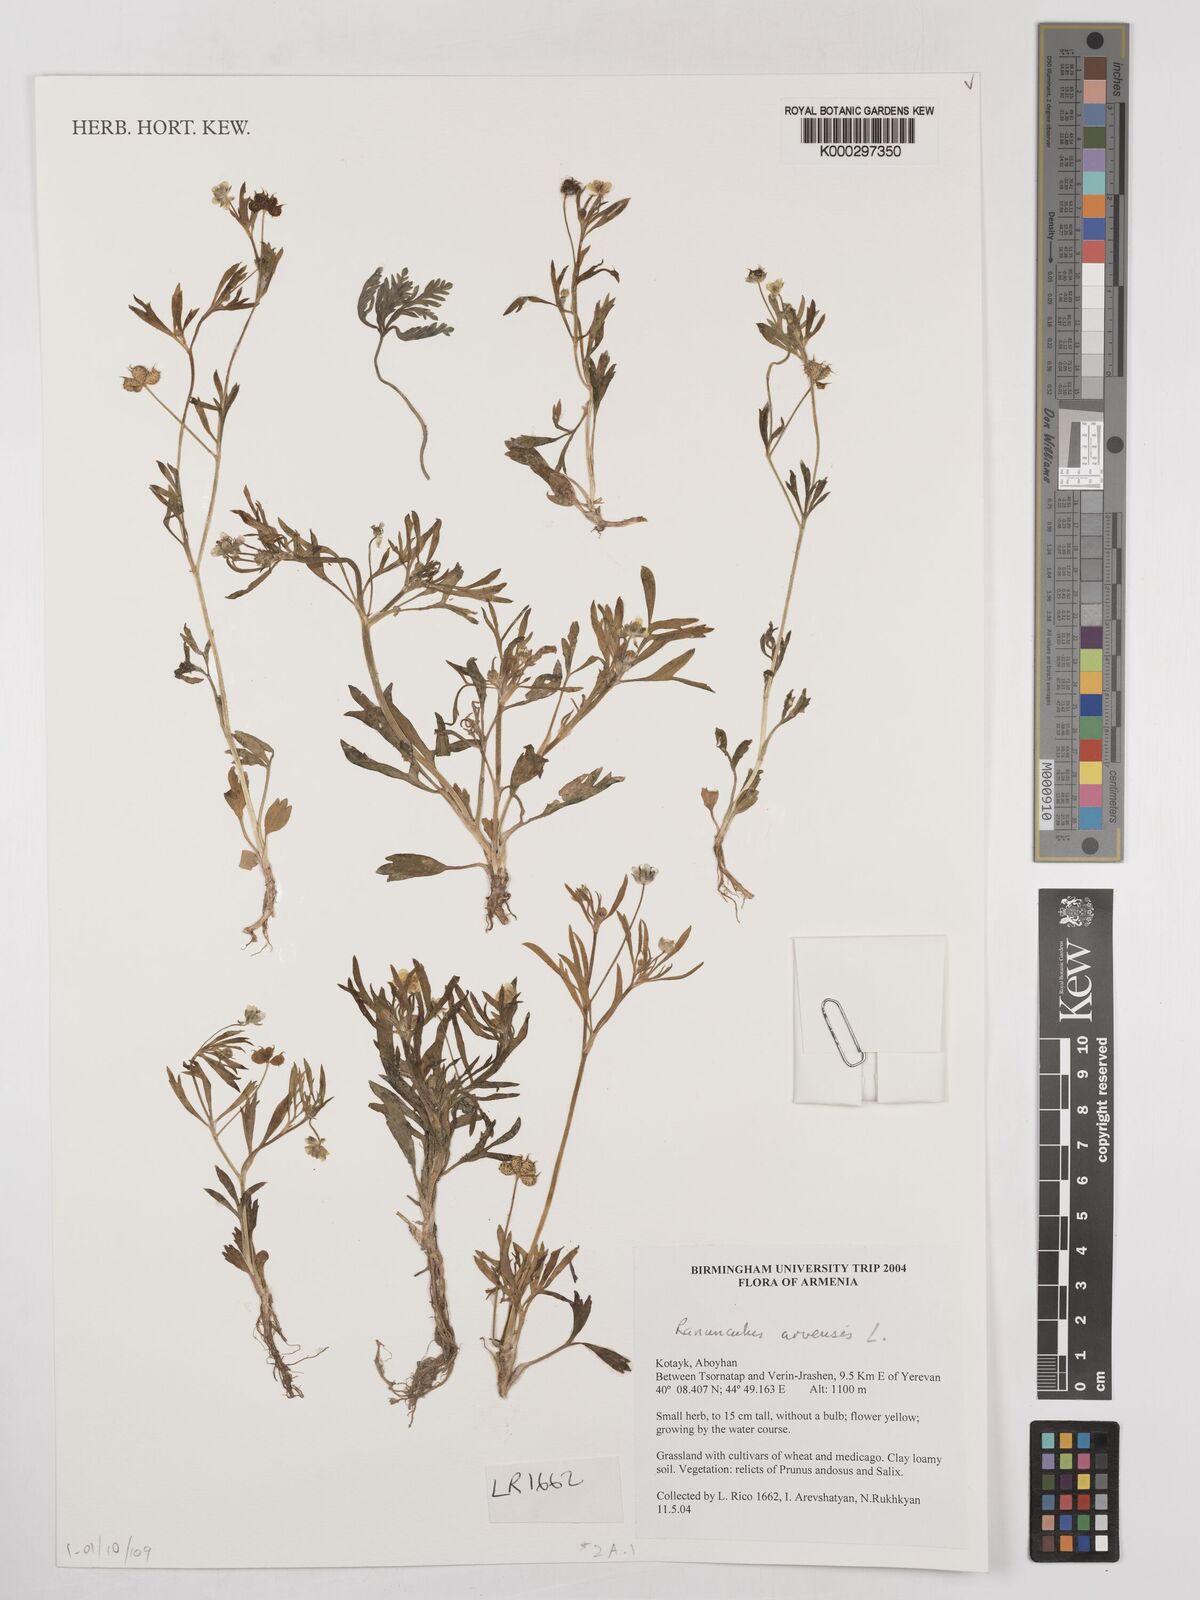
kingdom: Plantae
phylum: Tracheophyta
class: Magnoliopsida
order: Ranunculales
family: Ranunculaceae
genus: Ranunculus
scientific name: Ranunculus arvensis
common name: Corn buttercup
